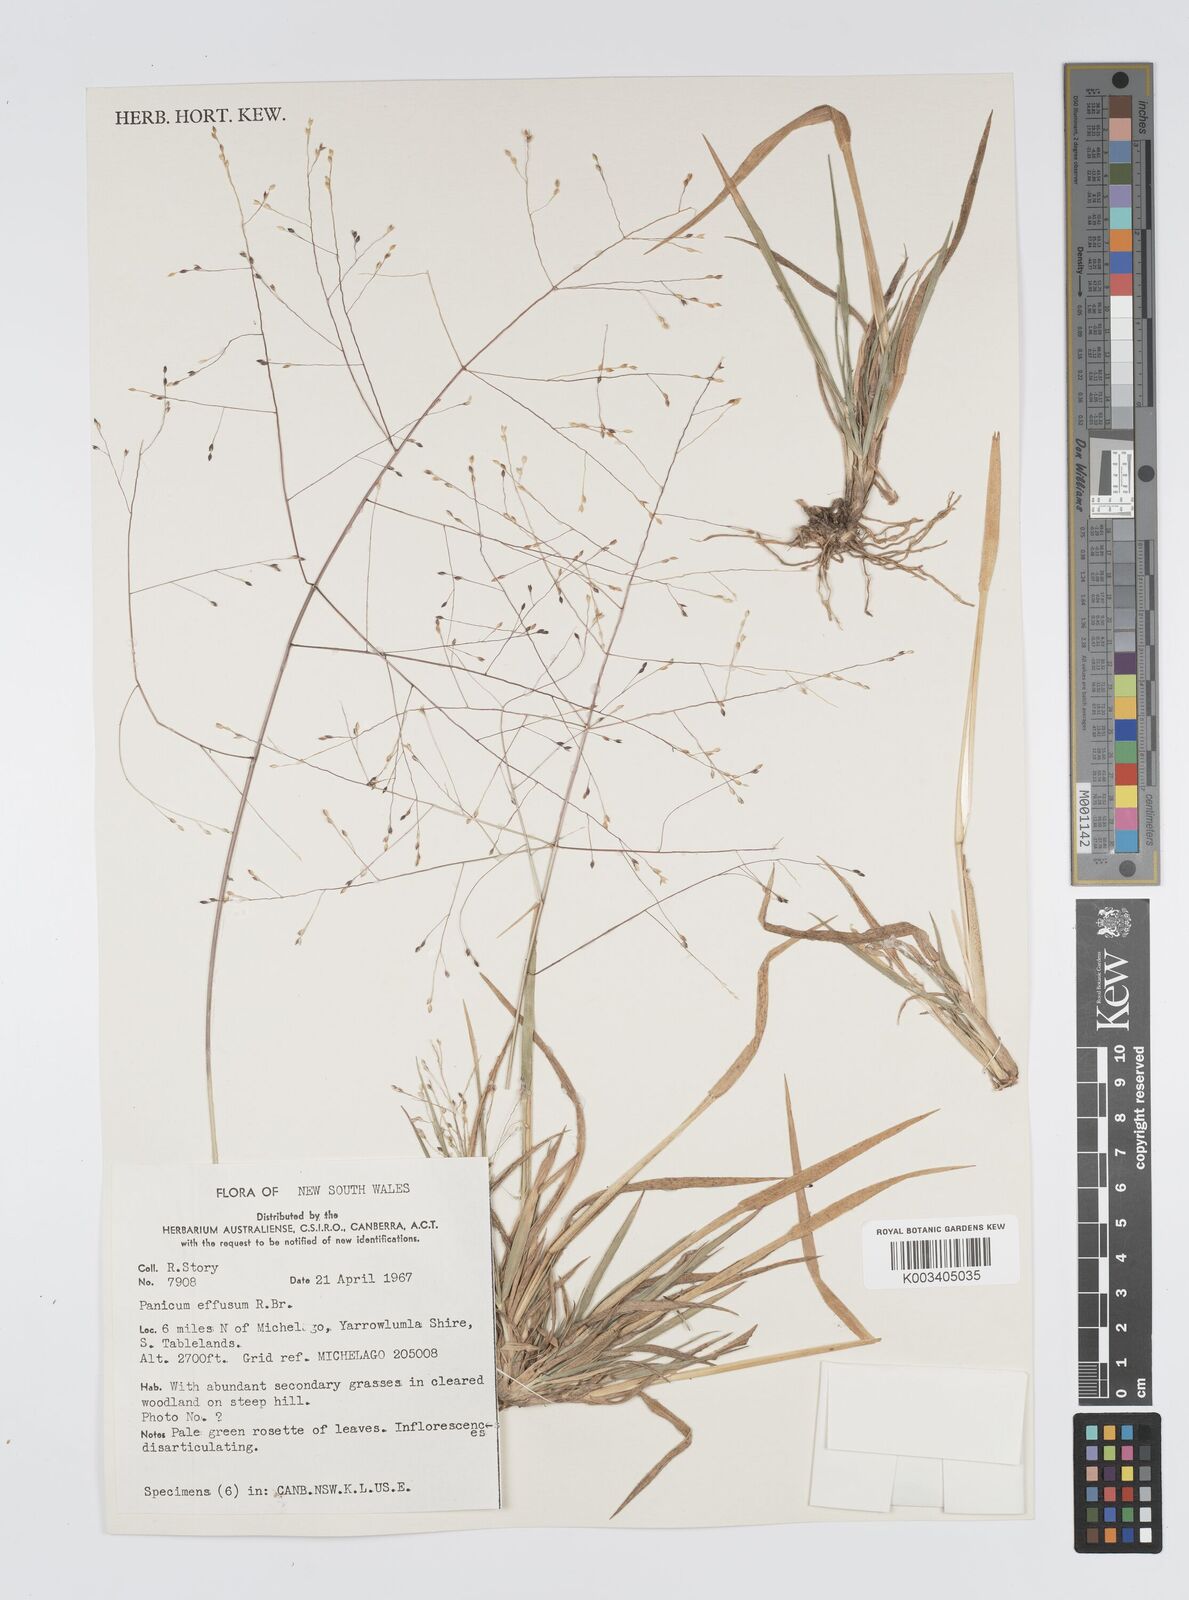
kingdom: Plantae
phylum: Tracheophyta
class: Liliopsida
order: Poales
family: Poaceae
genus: Panicum
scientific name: Panicum effusum
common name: Hairy panic grass
